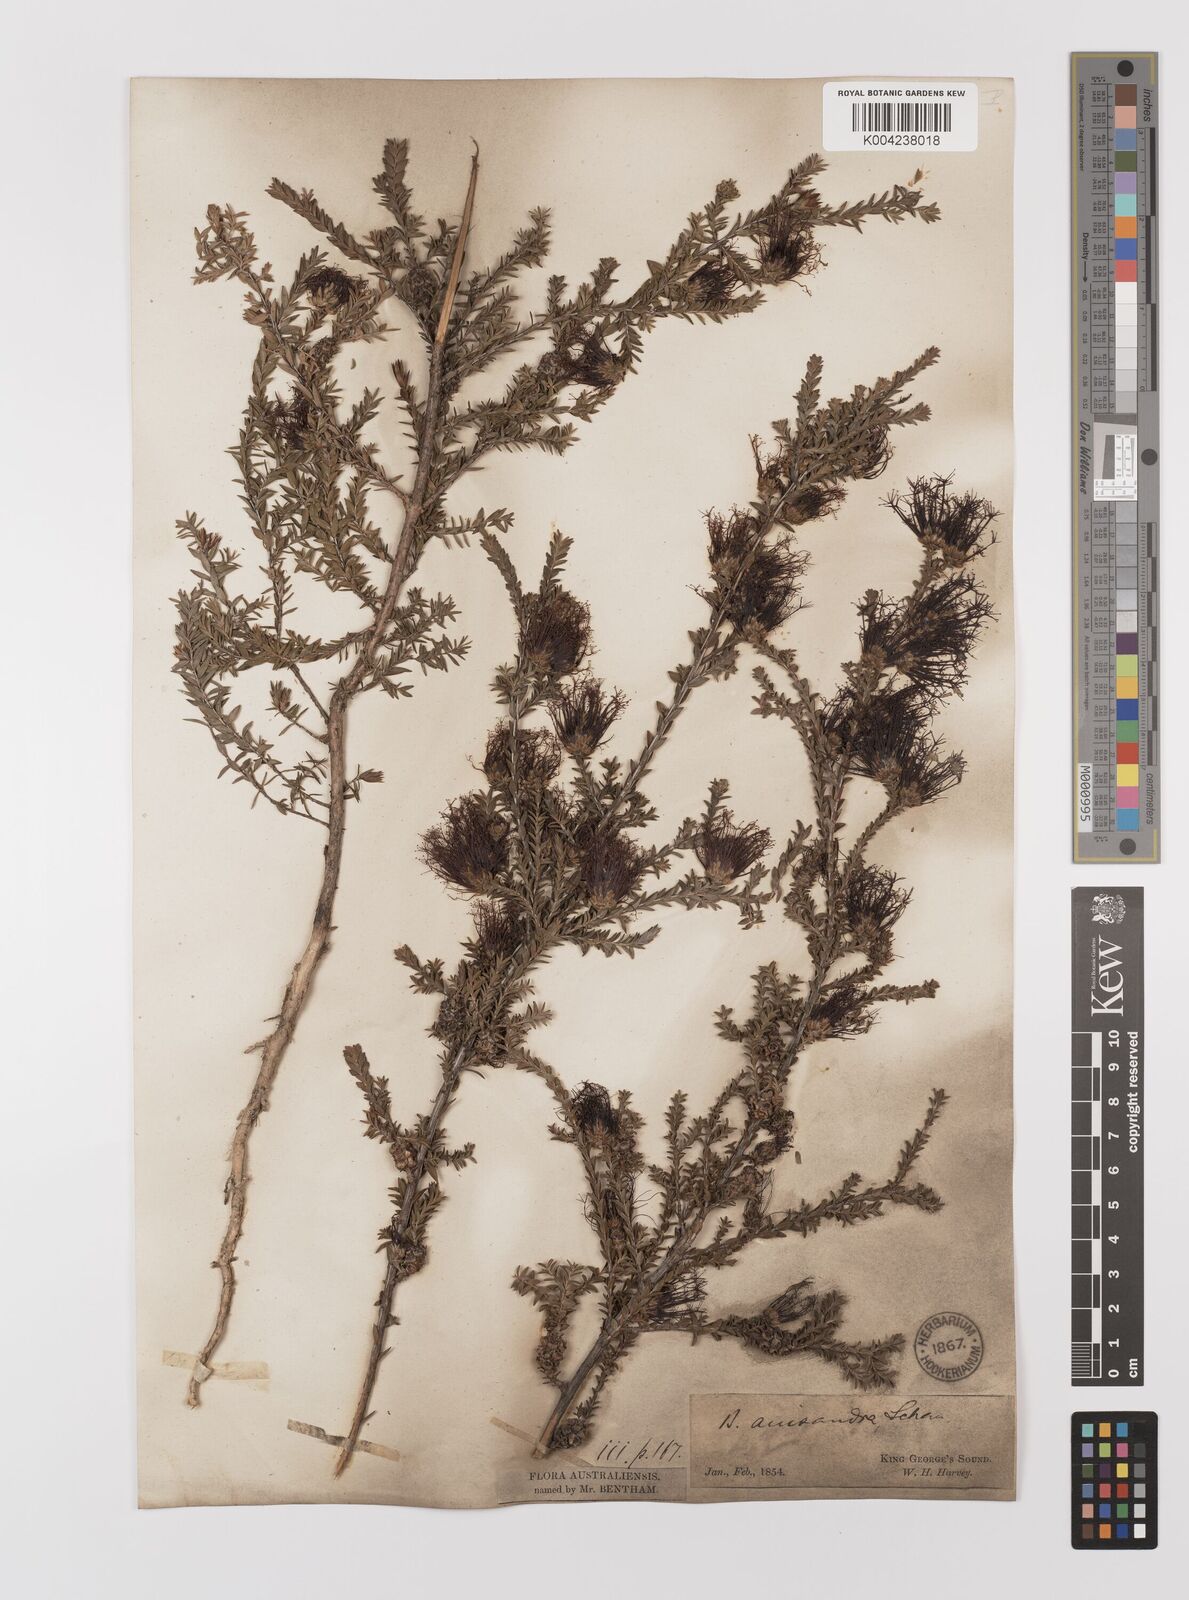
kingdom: Plantae
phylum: Tracheophyta
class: Magnoliopsida
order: Myrtales
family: Myrtaceae
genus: Melaleuca
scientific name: Melaleuca anisandra
